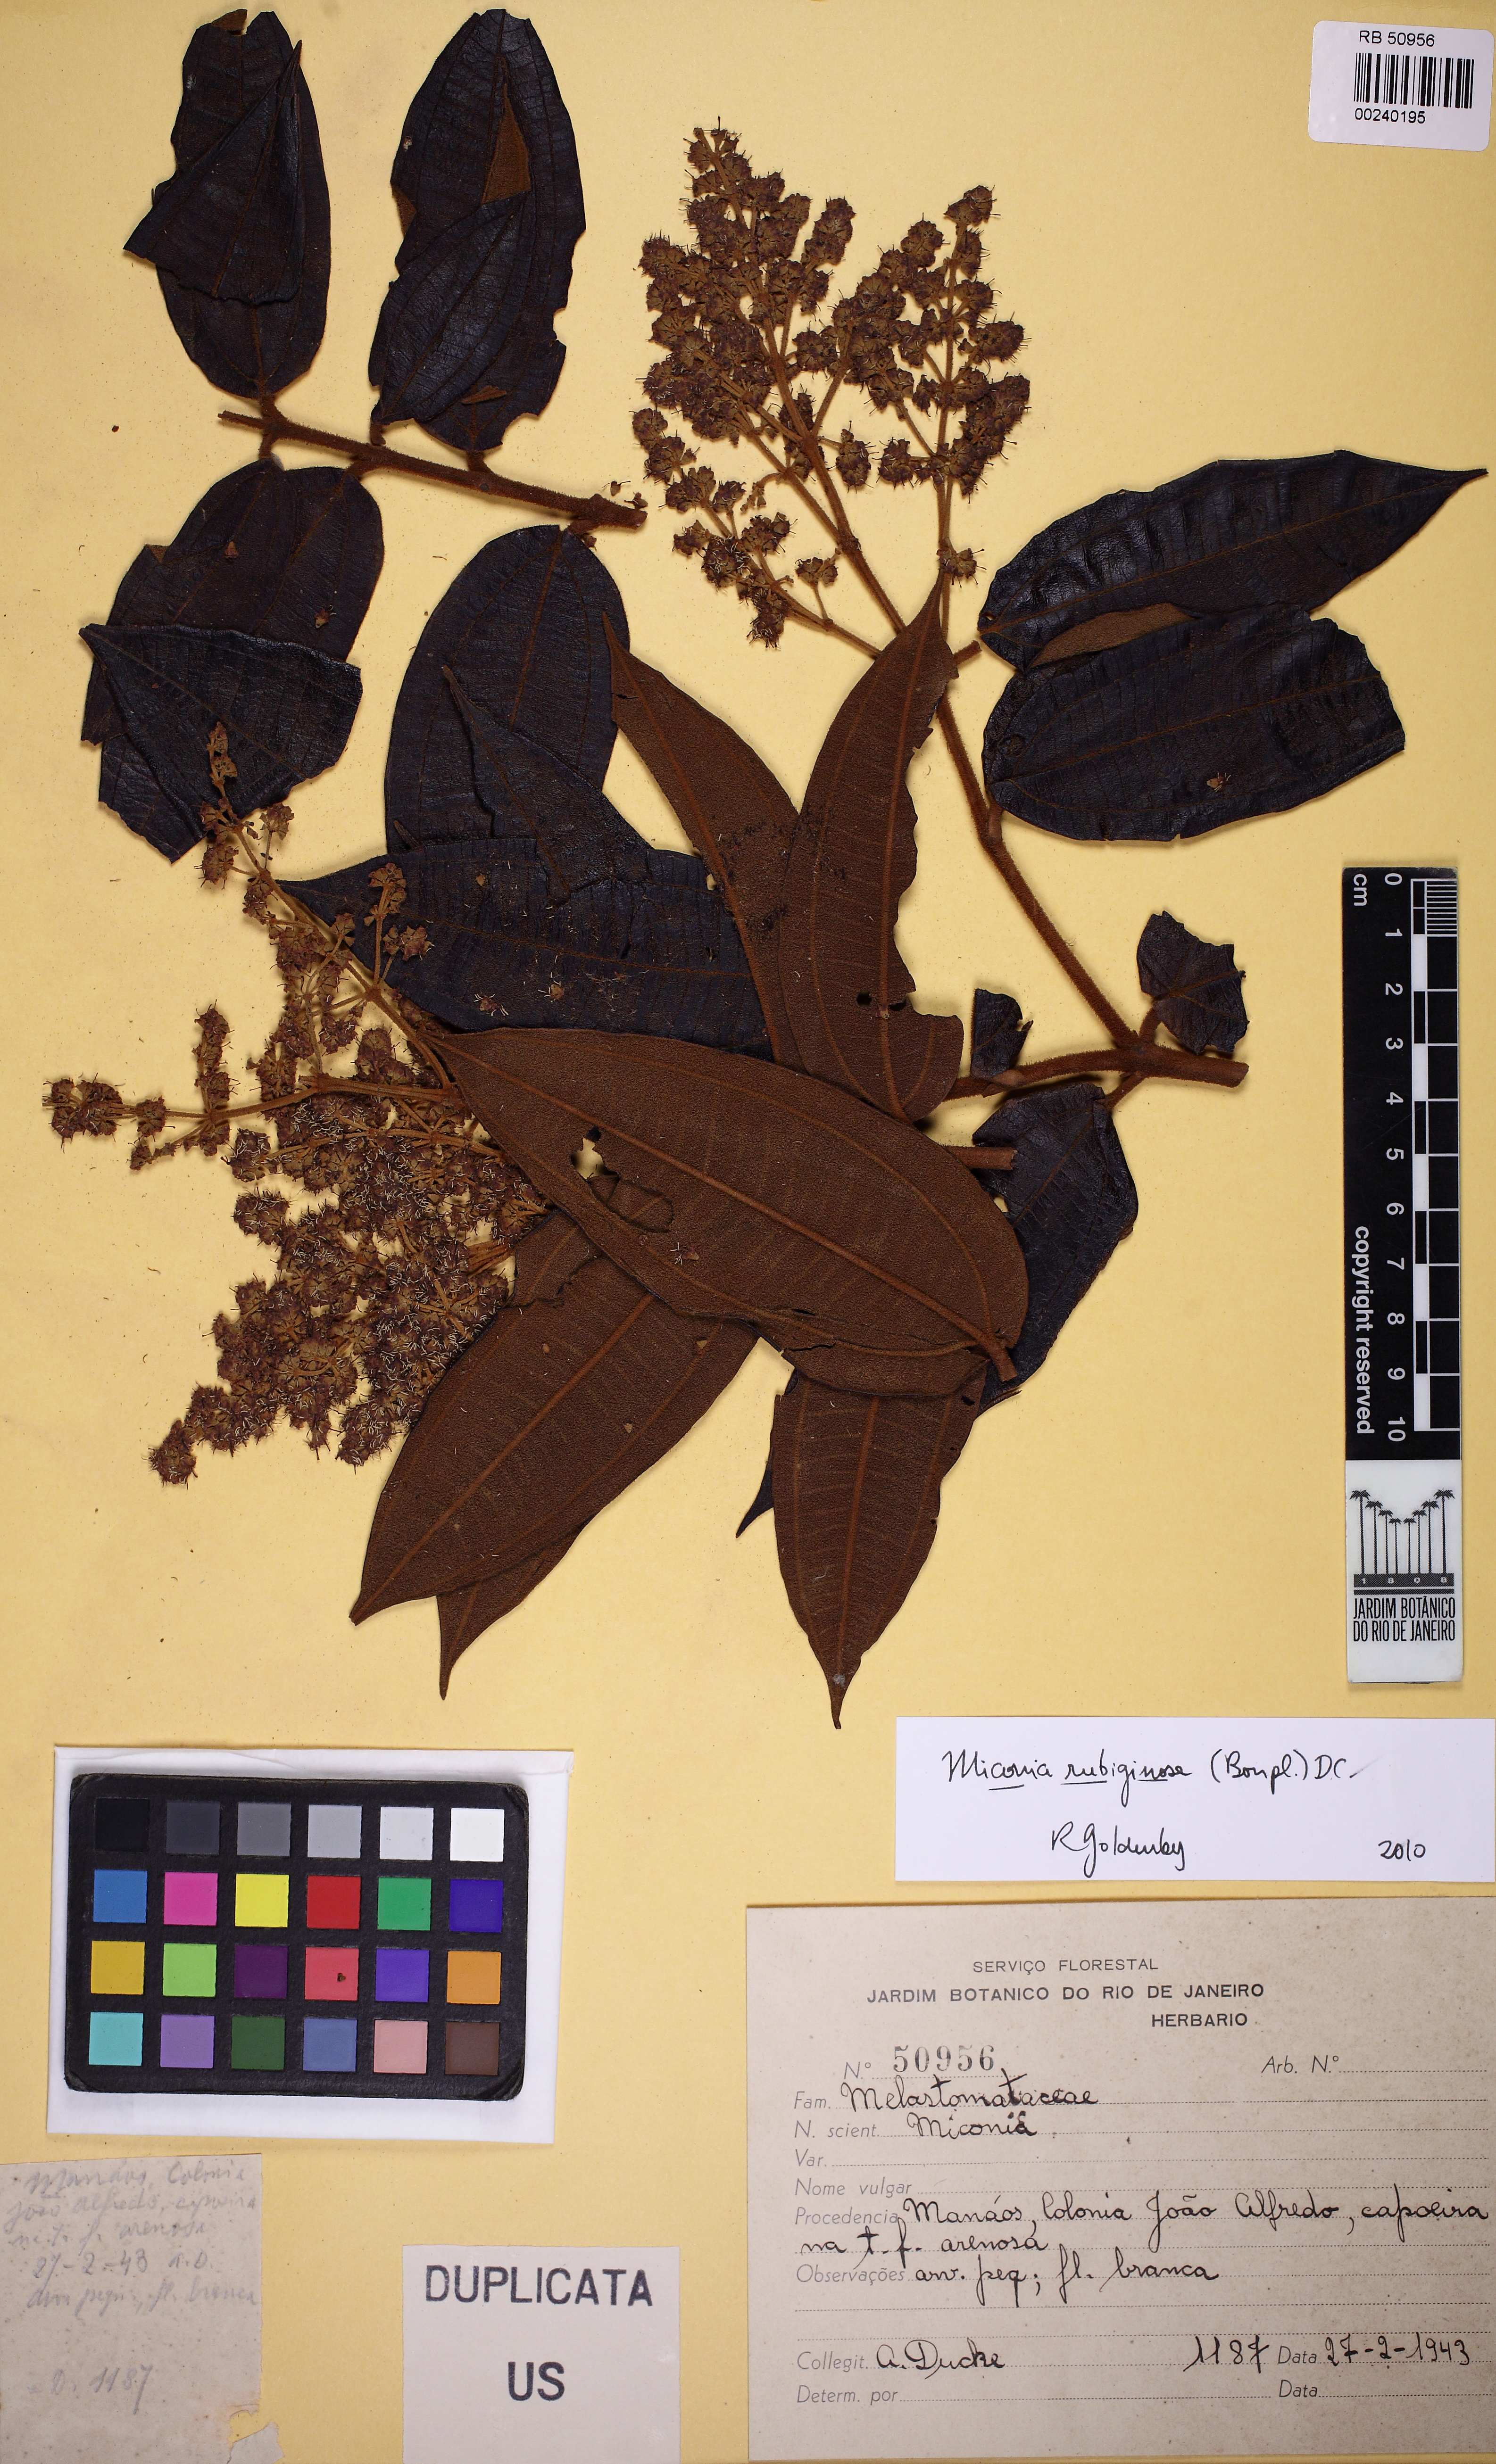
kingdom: Plantae
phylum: Tracheophyta
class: Magnoliopsida
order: Myrtales
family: Melastomataceae
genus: Miconia
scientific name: Miconia rubiginosa
